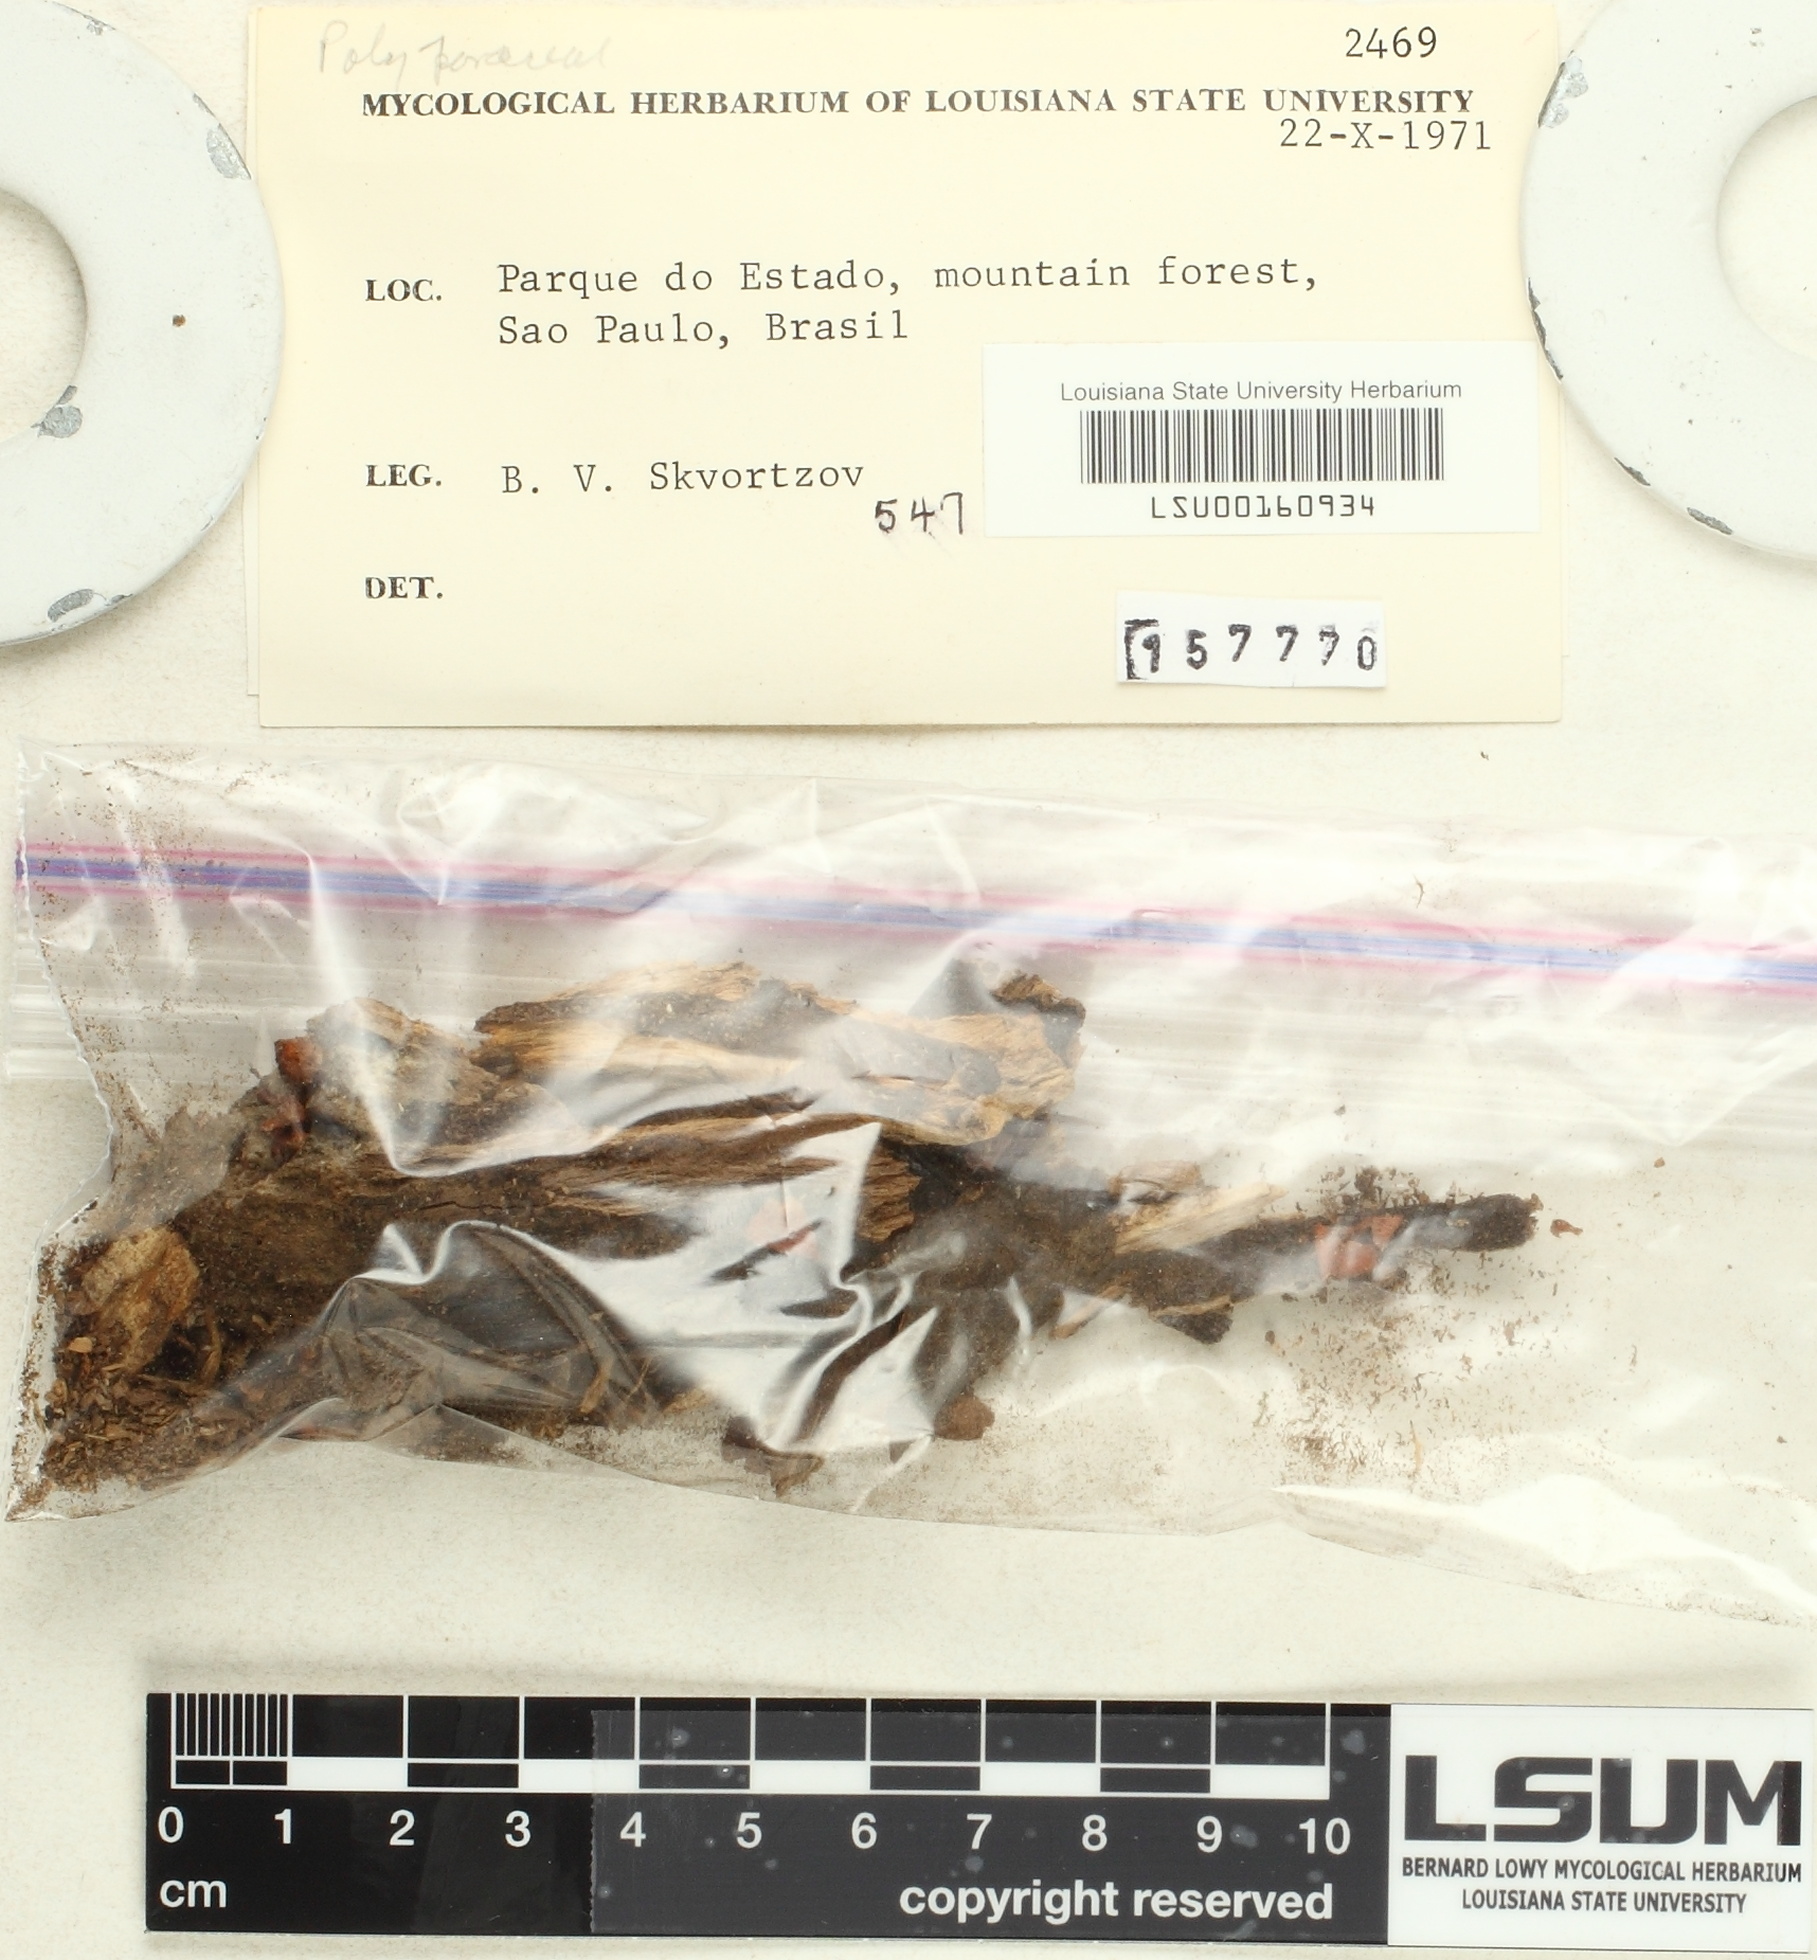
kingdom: Fungi
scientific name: Fungi
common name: Fungi
